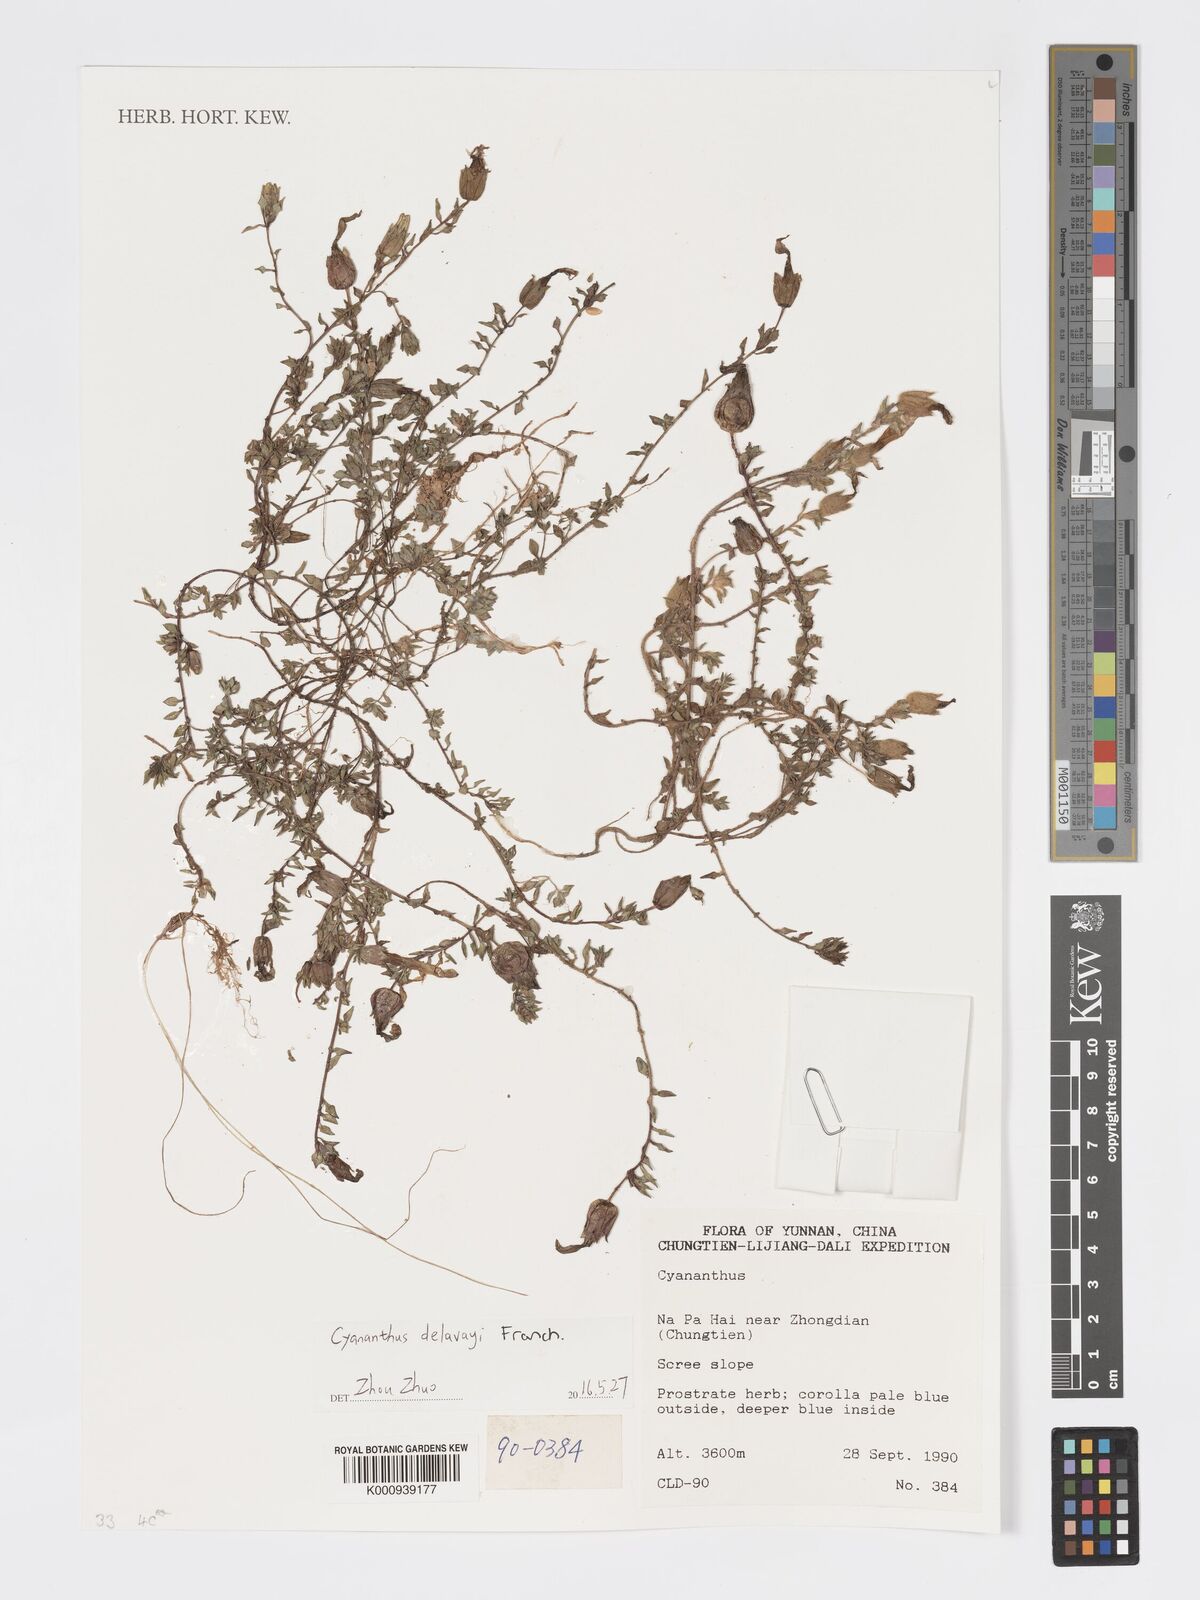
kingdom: Plantae
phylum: Tracheophyta
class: Magnoliopsida
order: Asterales
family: Campanulaceae
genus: Cyananthus
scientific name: Cyananthus delavayi
